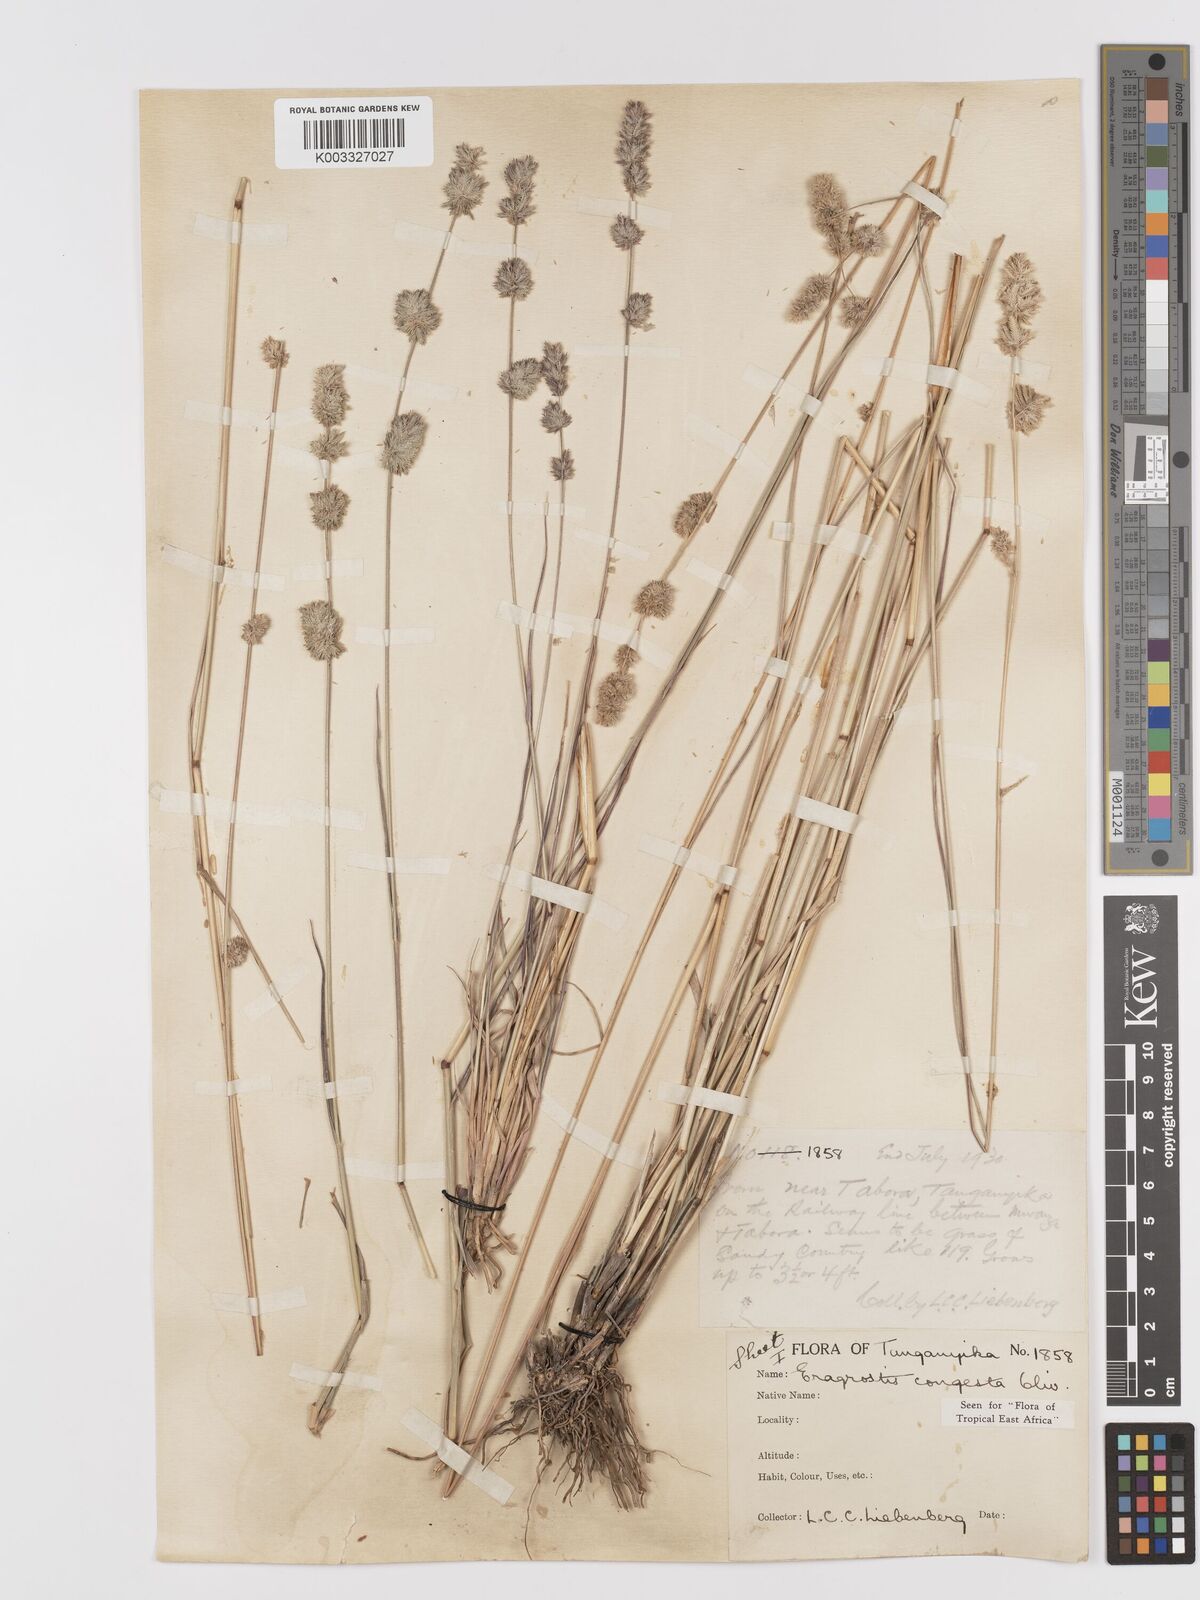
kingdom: Plantae
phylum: Tracheophyta
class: Liliopsida
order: Poales
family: Poaceae
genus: Eragrostis
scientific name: Eragrostis congesta
